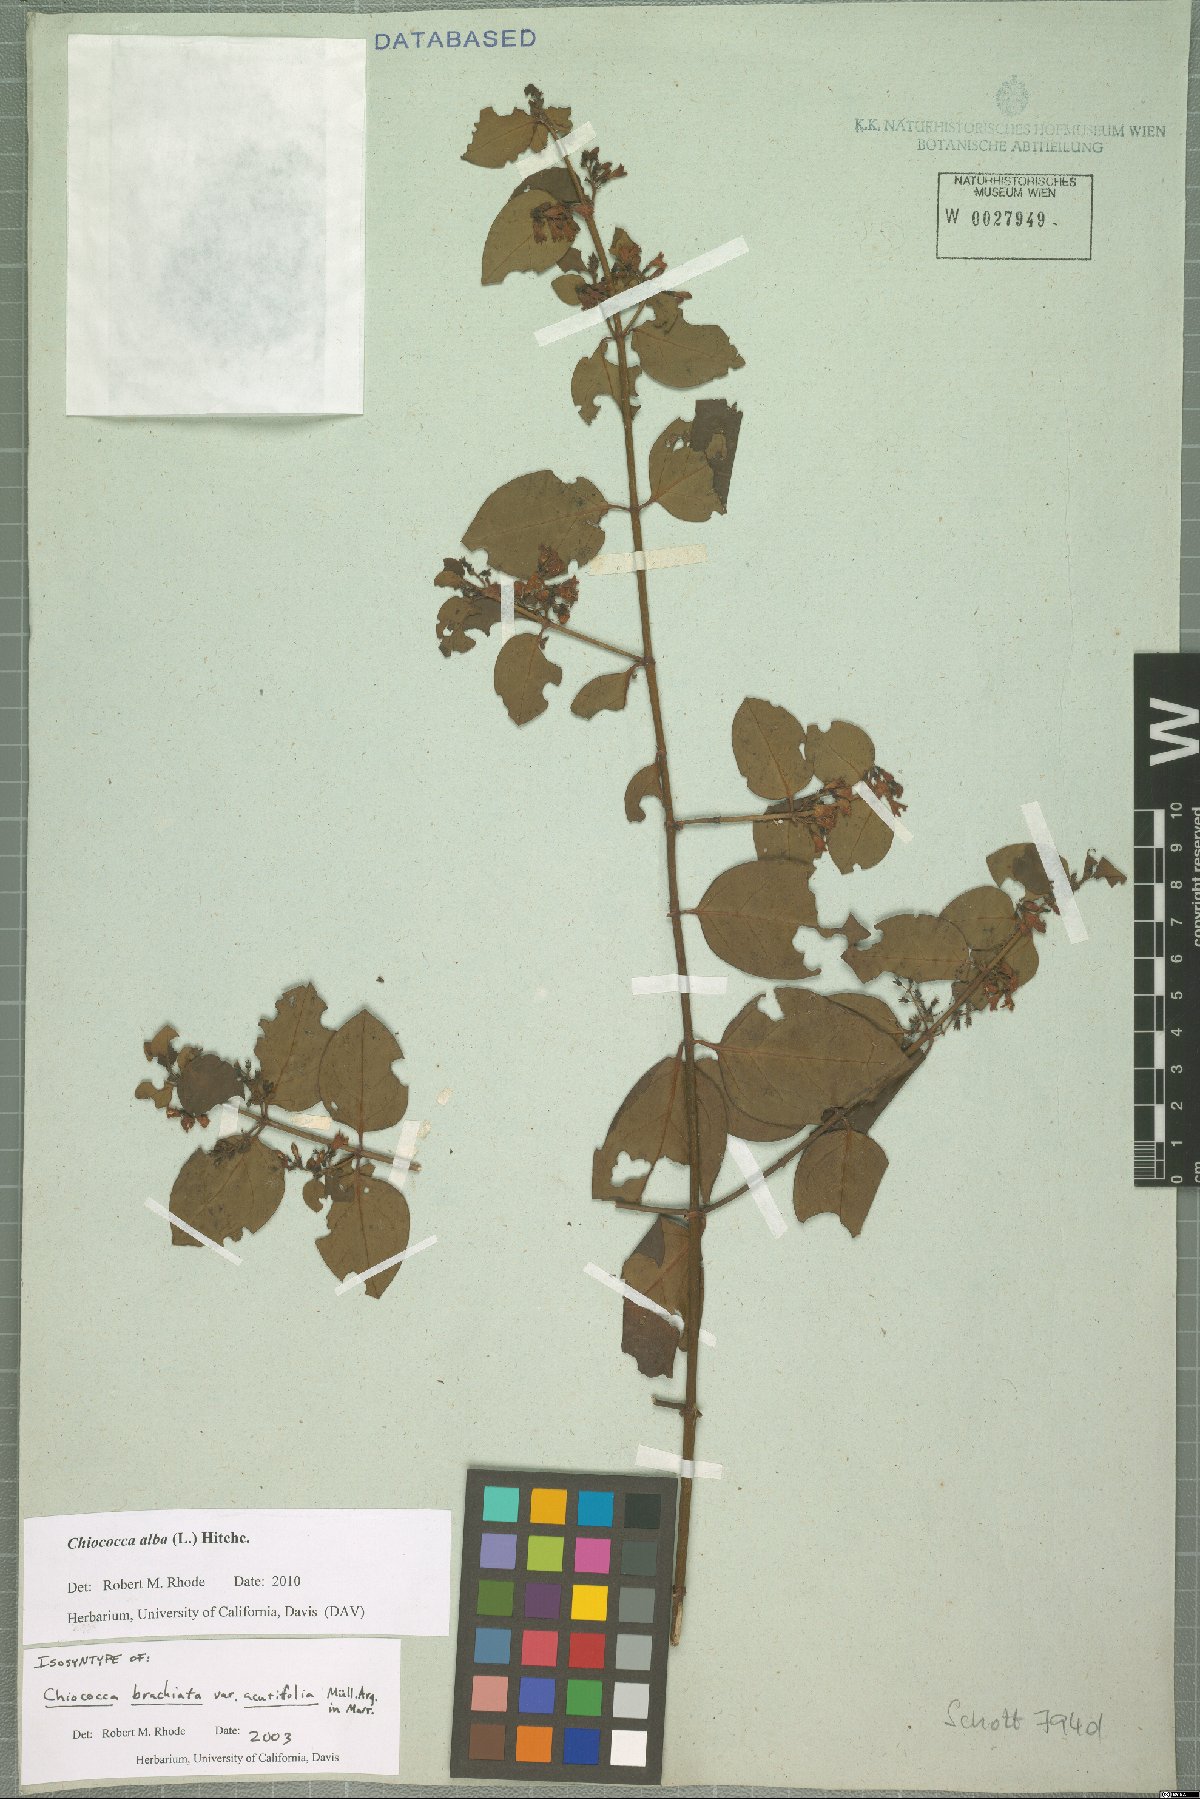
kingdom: Plantae
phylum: Tracheophyta
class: Magnoliopsida
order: Gentianales
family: Rubiaceae
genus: Chiococca
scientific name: Chiococca alba
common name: Snowberry
